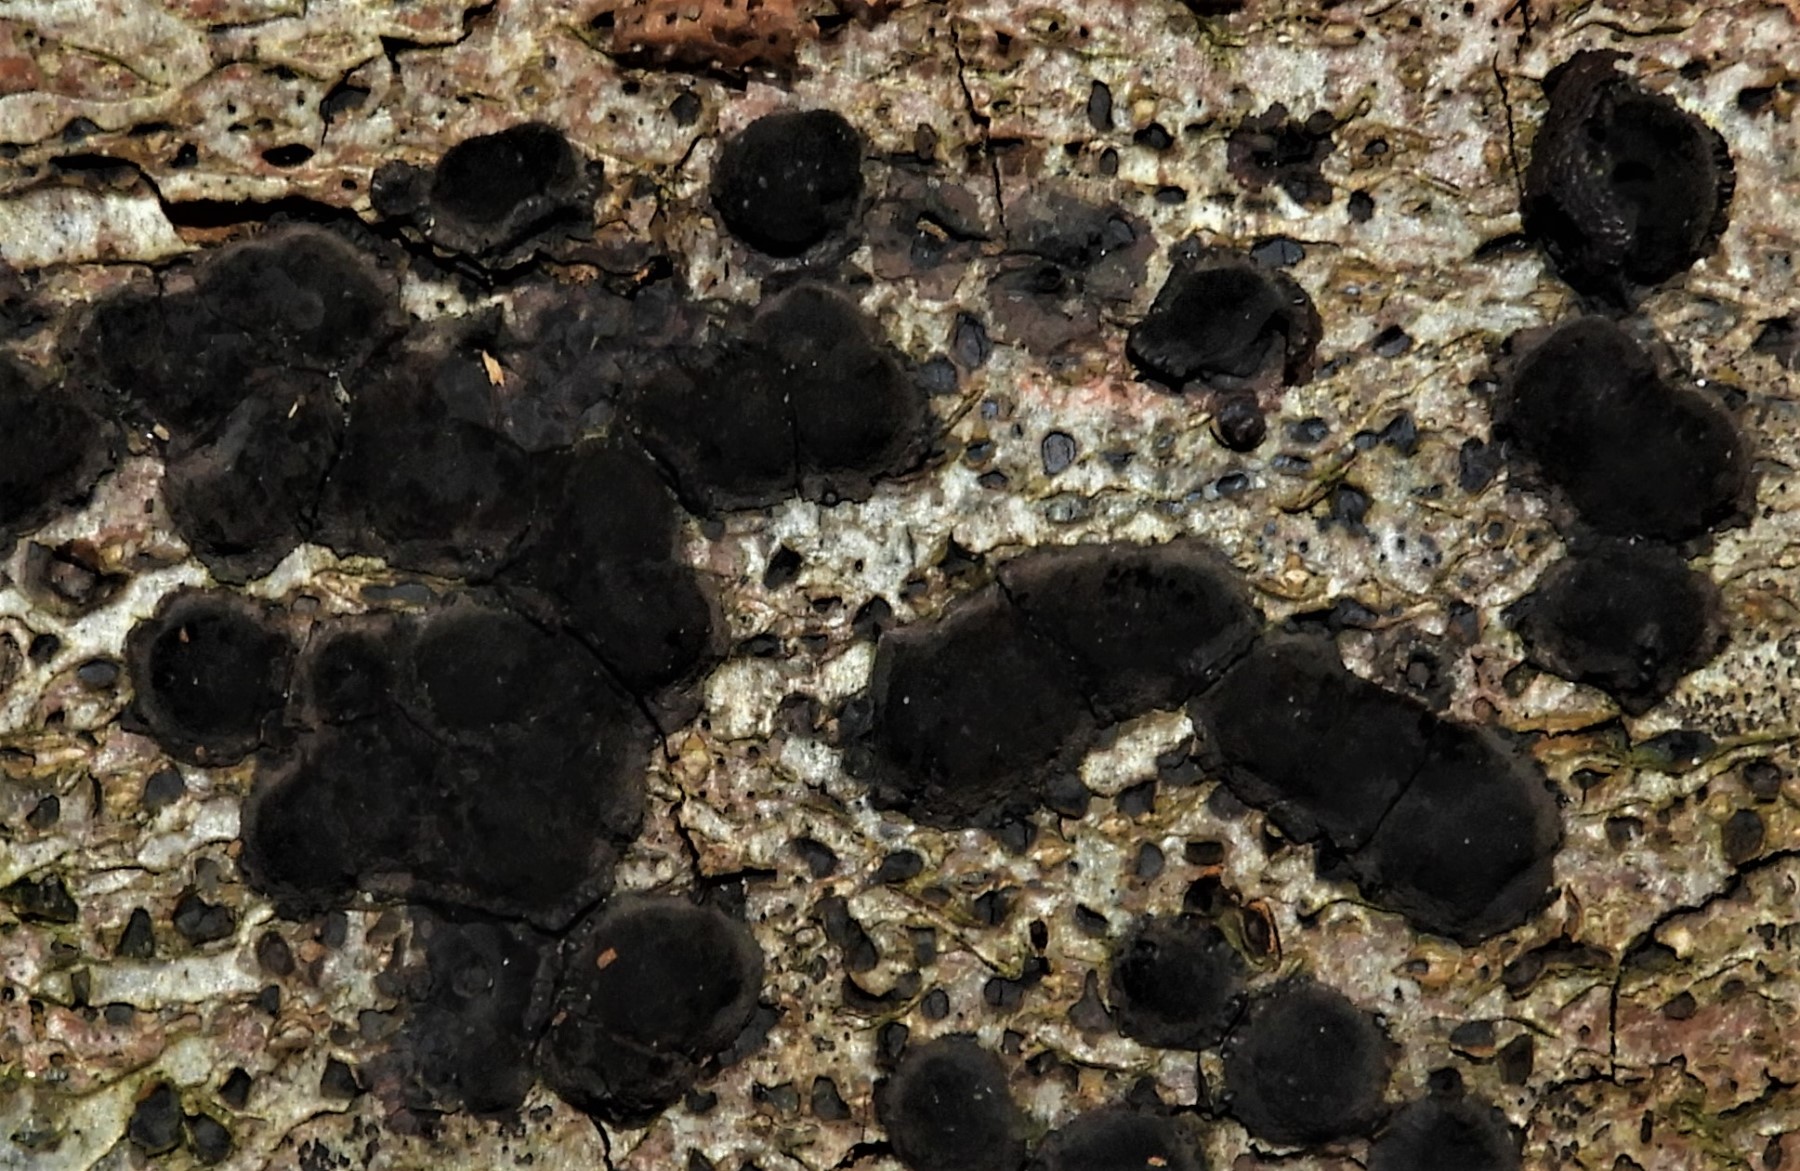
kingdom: Fungi
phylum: Ascomycota
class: Sordariomycetes
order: Xylariales
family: Hypoxylaceae
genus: Hypoxylon
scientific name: Hypoxylon
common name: kulbær
